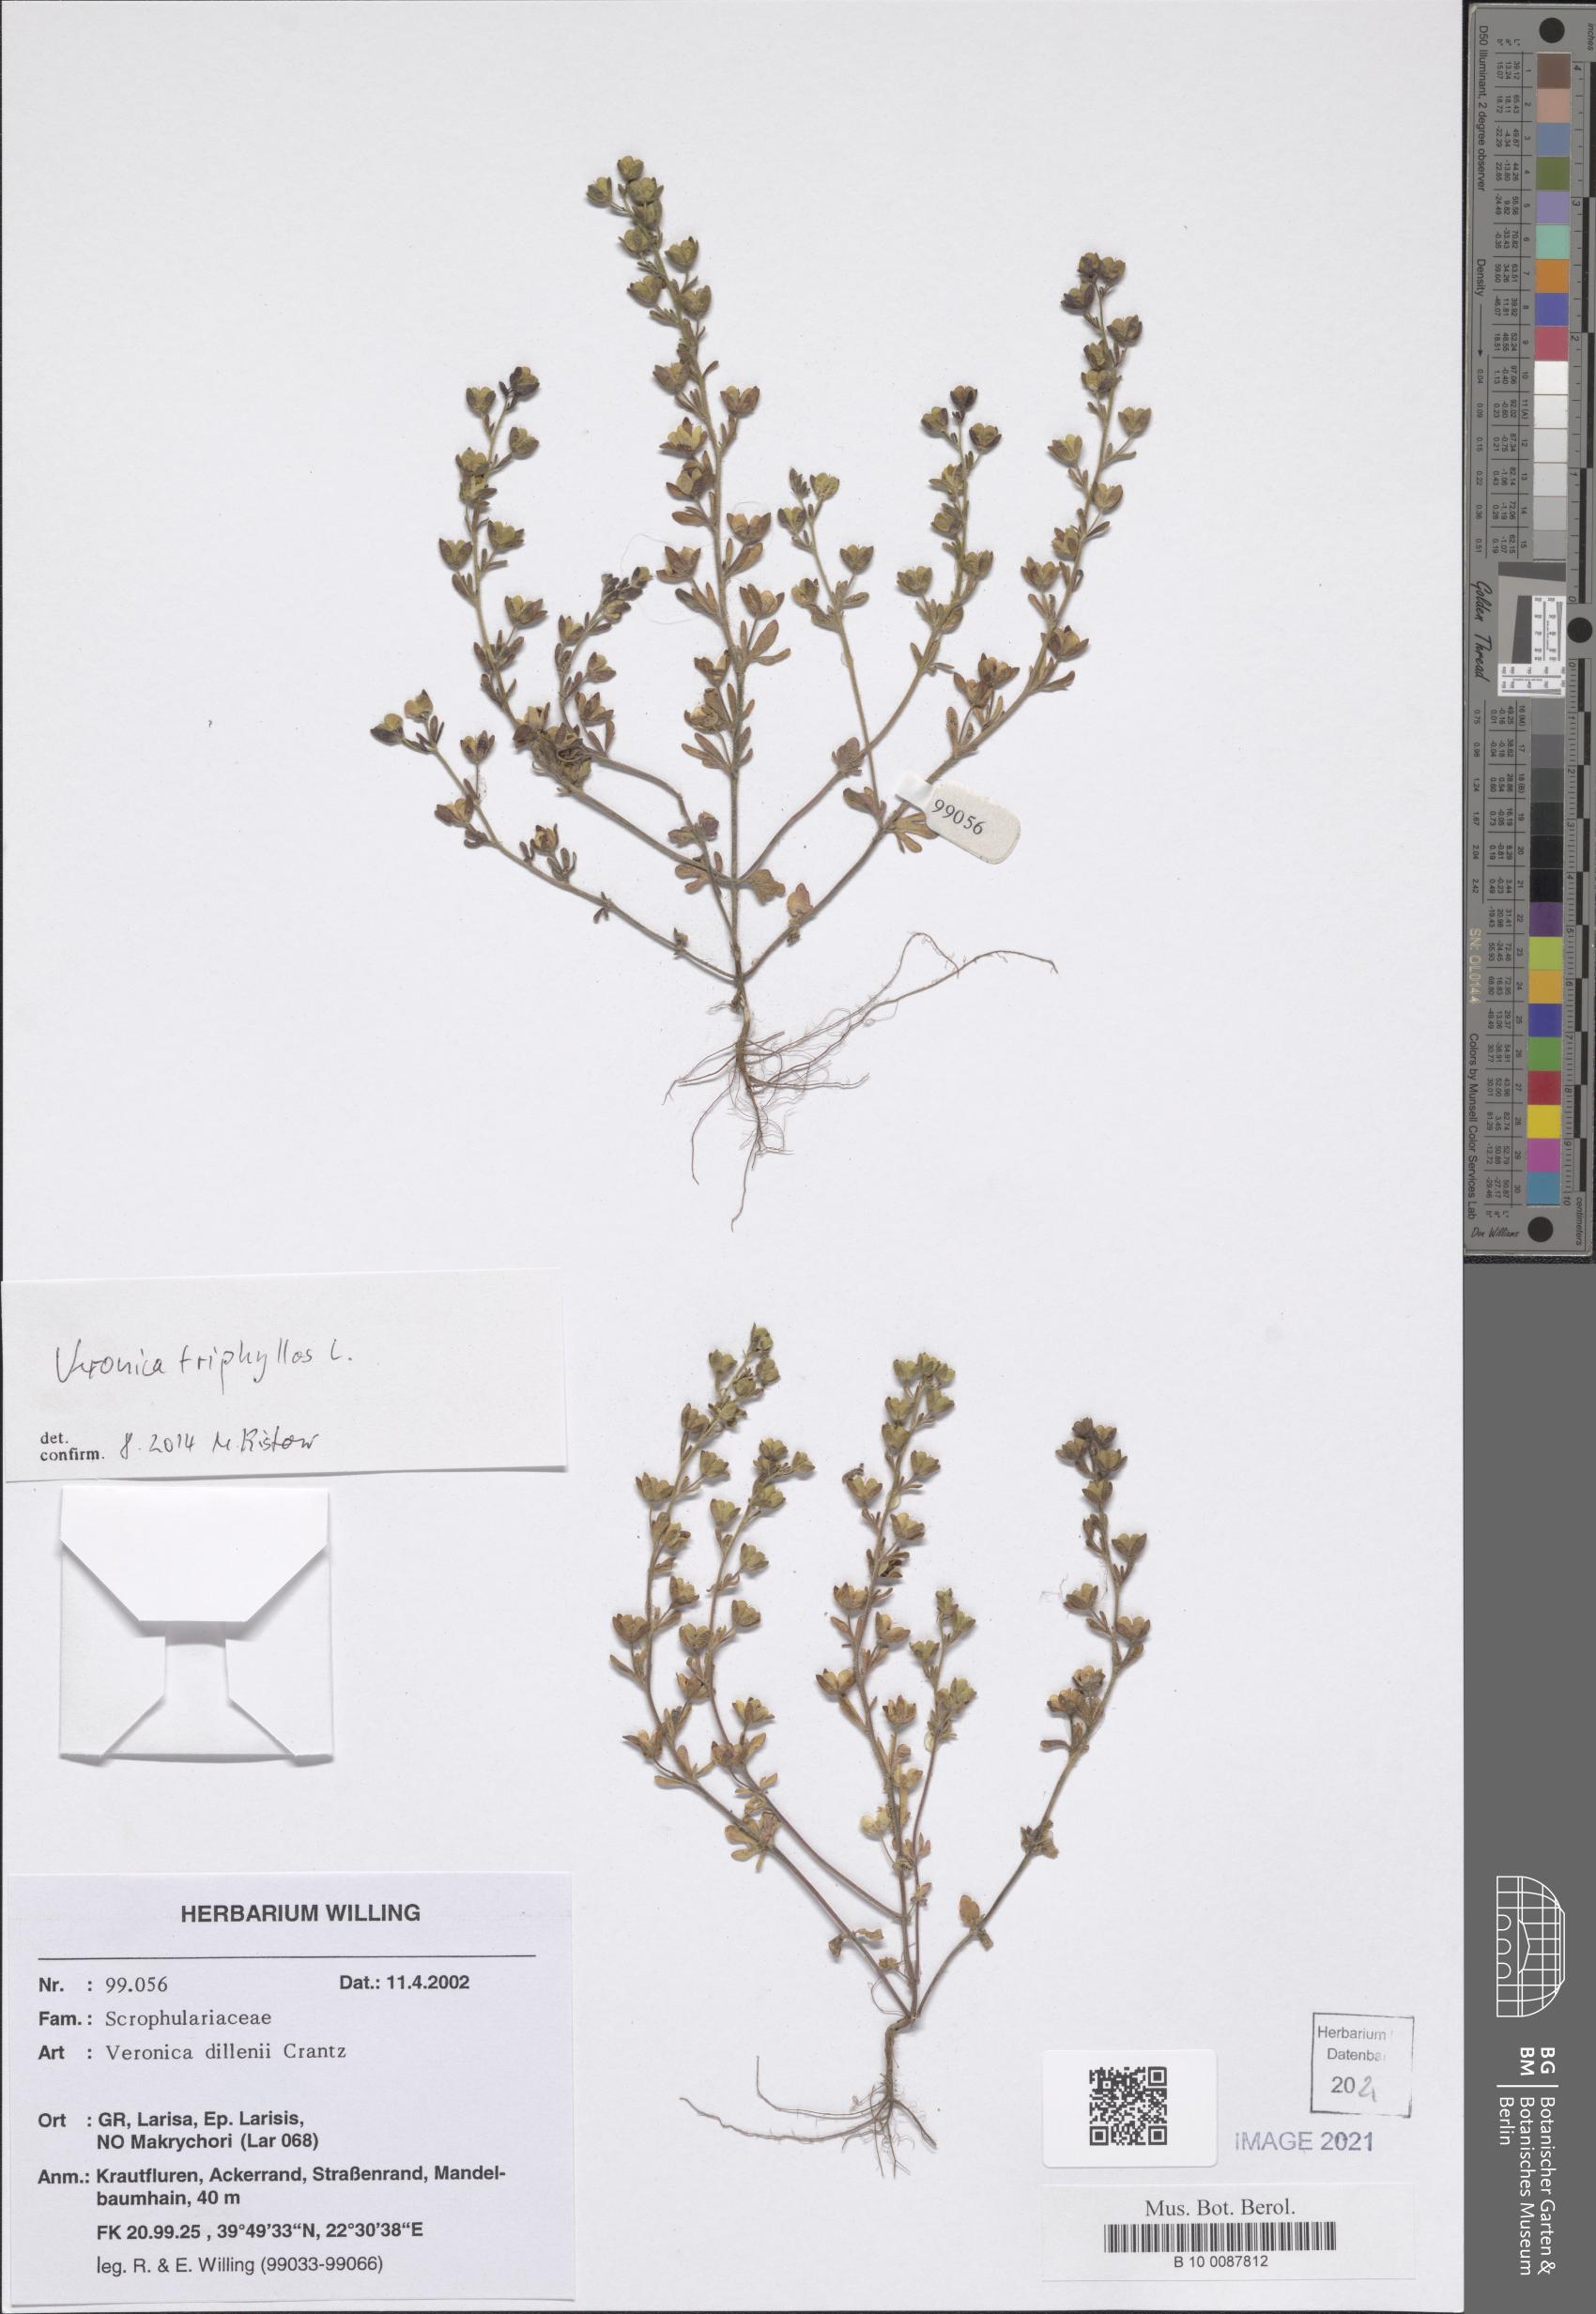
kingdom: Plantae
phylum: Tracheophyta
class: Magnoliopsida
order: Lamiales
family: Plantaginaceae
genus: Veronica
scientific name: Veronica triphyllos
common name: Fingered speedwell
